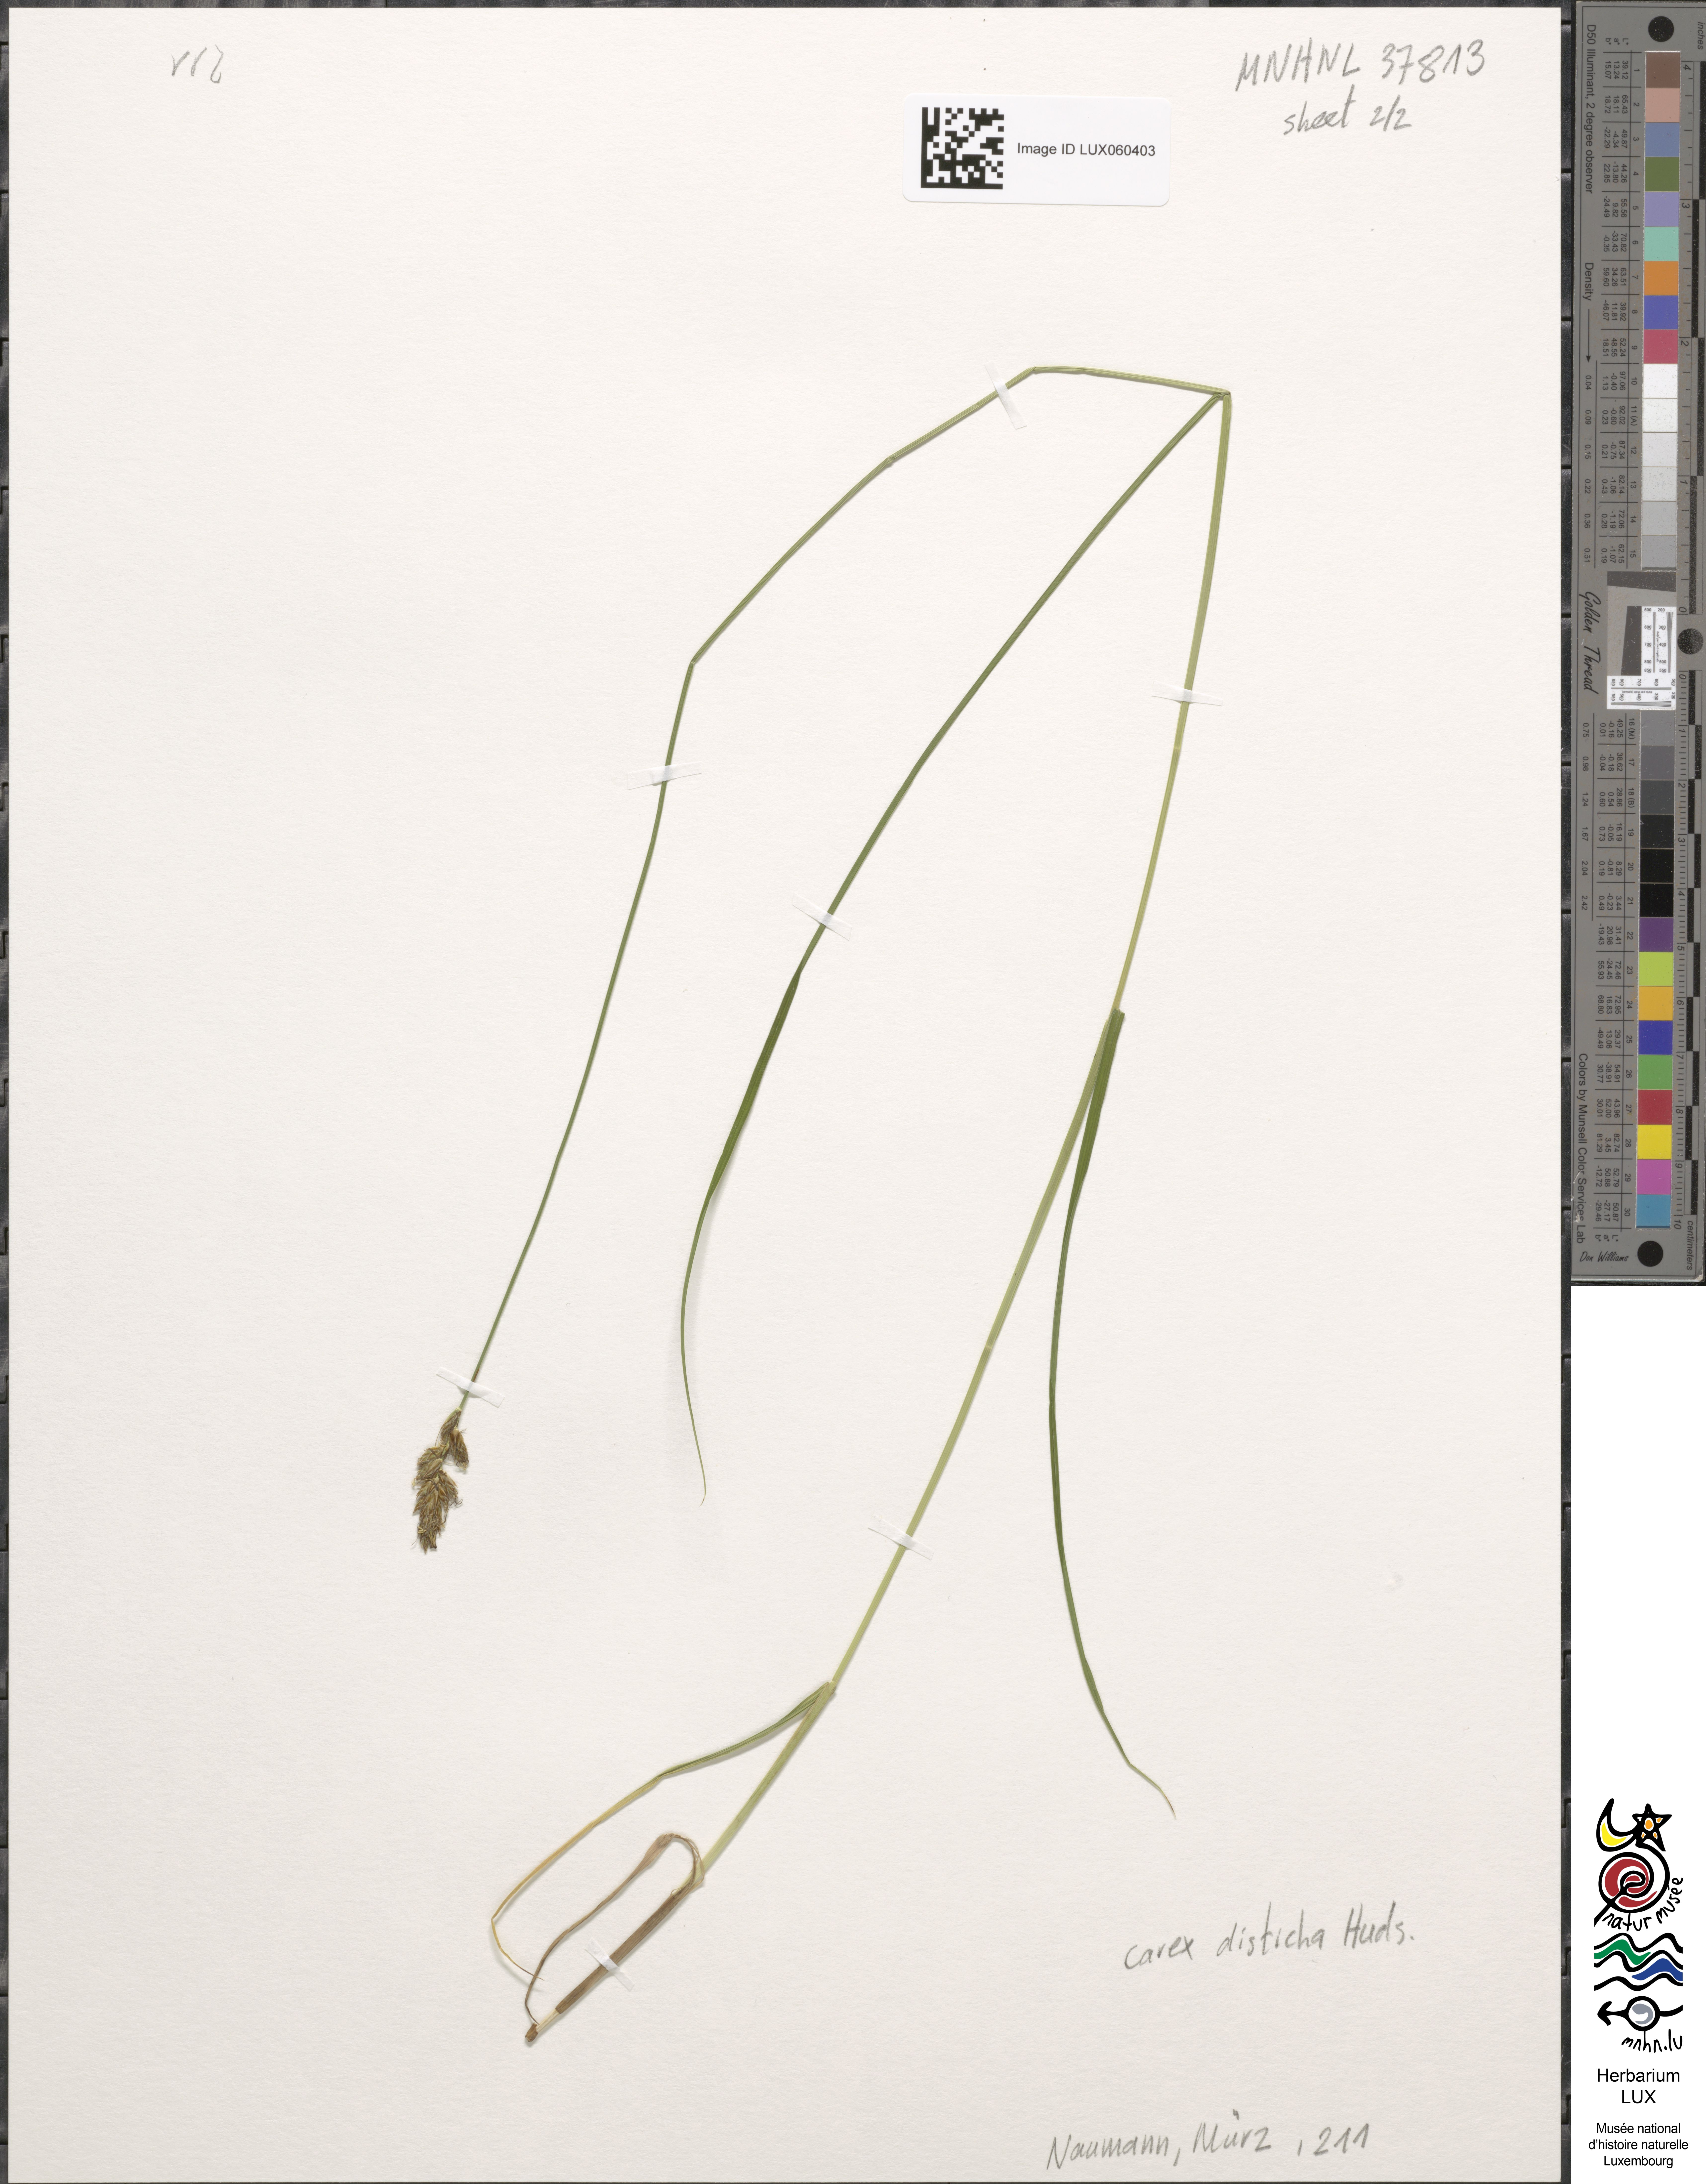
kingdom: Plantae
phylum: Tracheophyta
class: Liliopsida
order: Poales
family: Cyperaceae
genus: Carex
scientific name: Carex disticha
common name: Brown sedge
